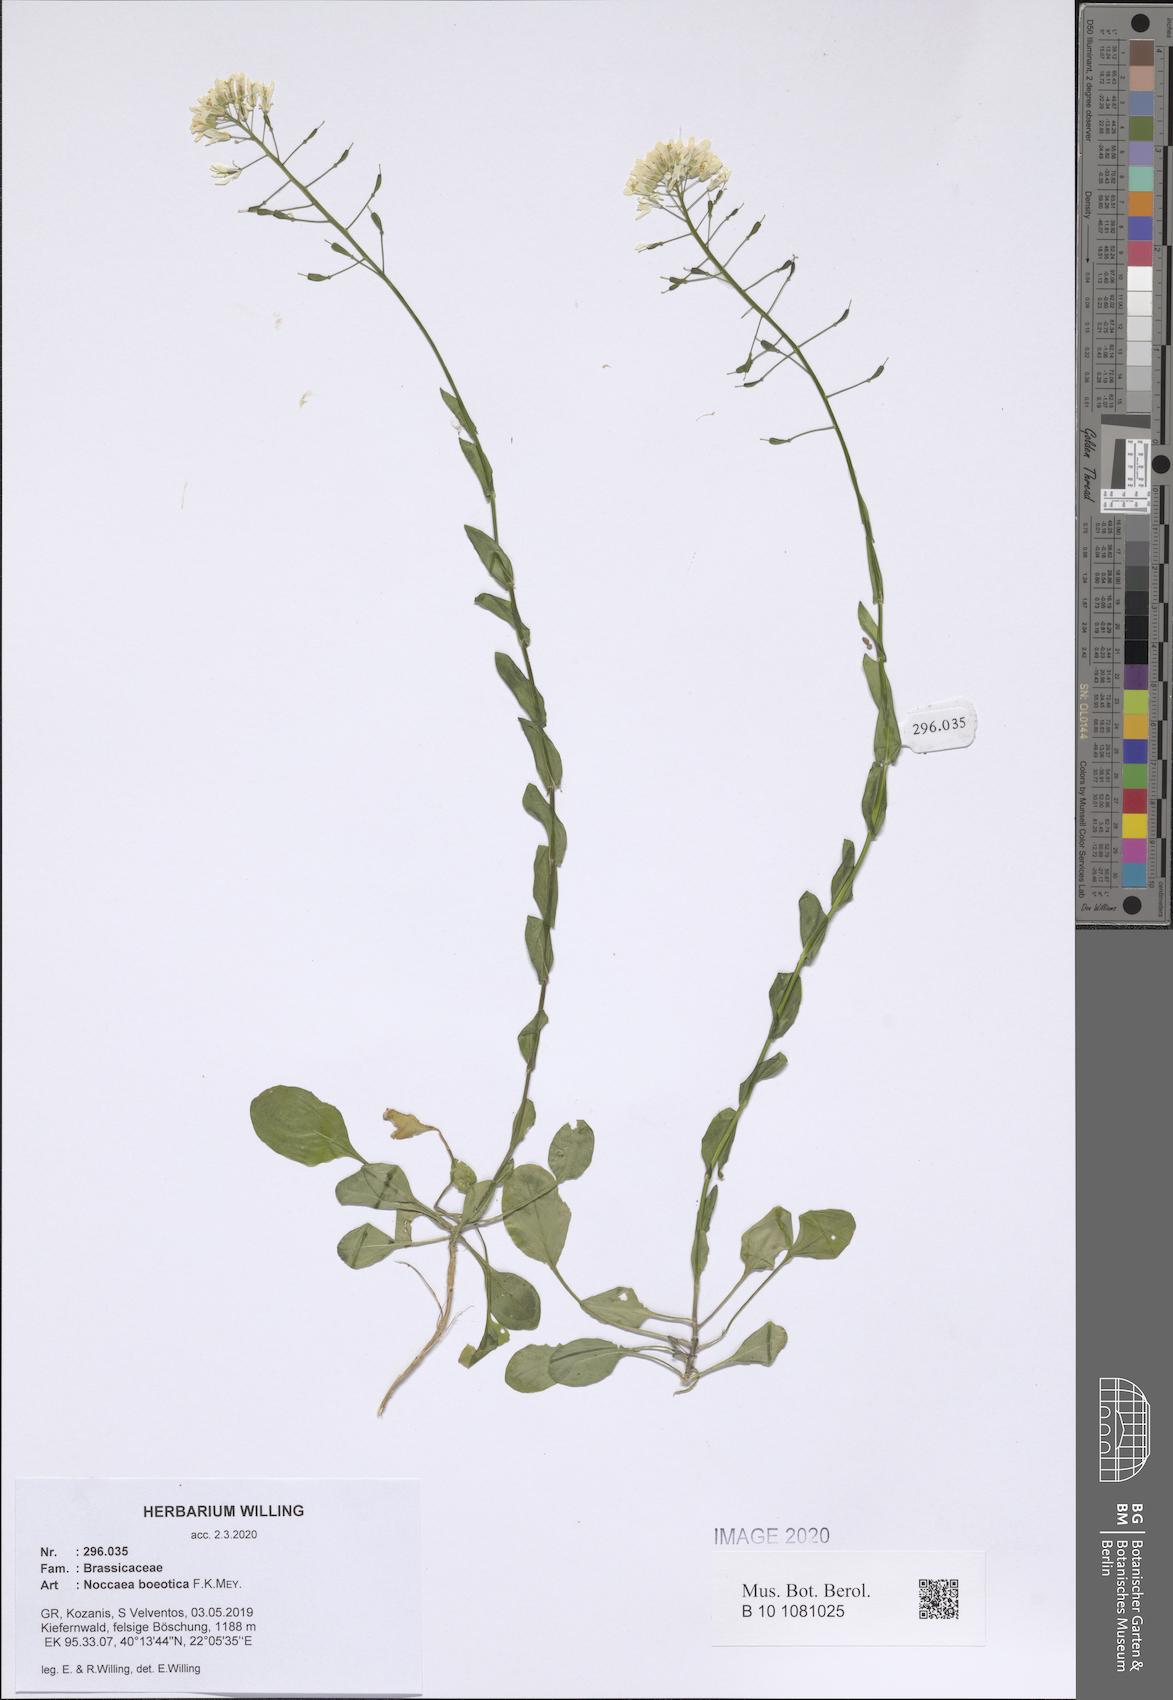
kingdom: Plantae
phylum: Tracheophyta
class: Magnoliopsida
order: Brassicales
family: Brassicaceae
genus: Noccaea
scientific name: Noccaea boeotica
